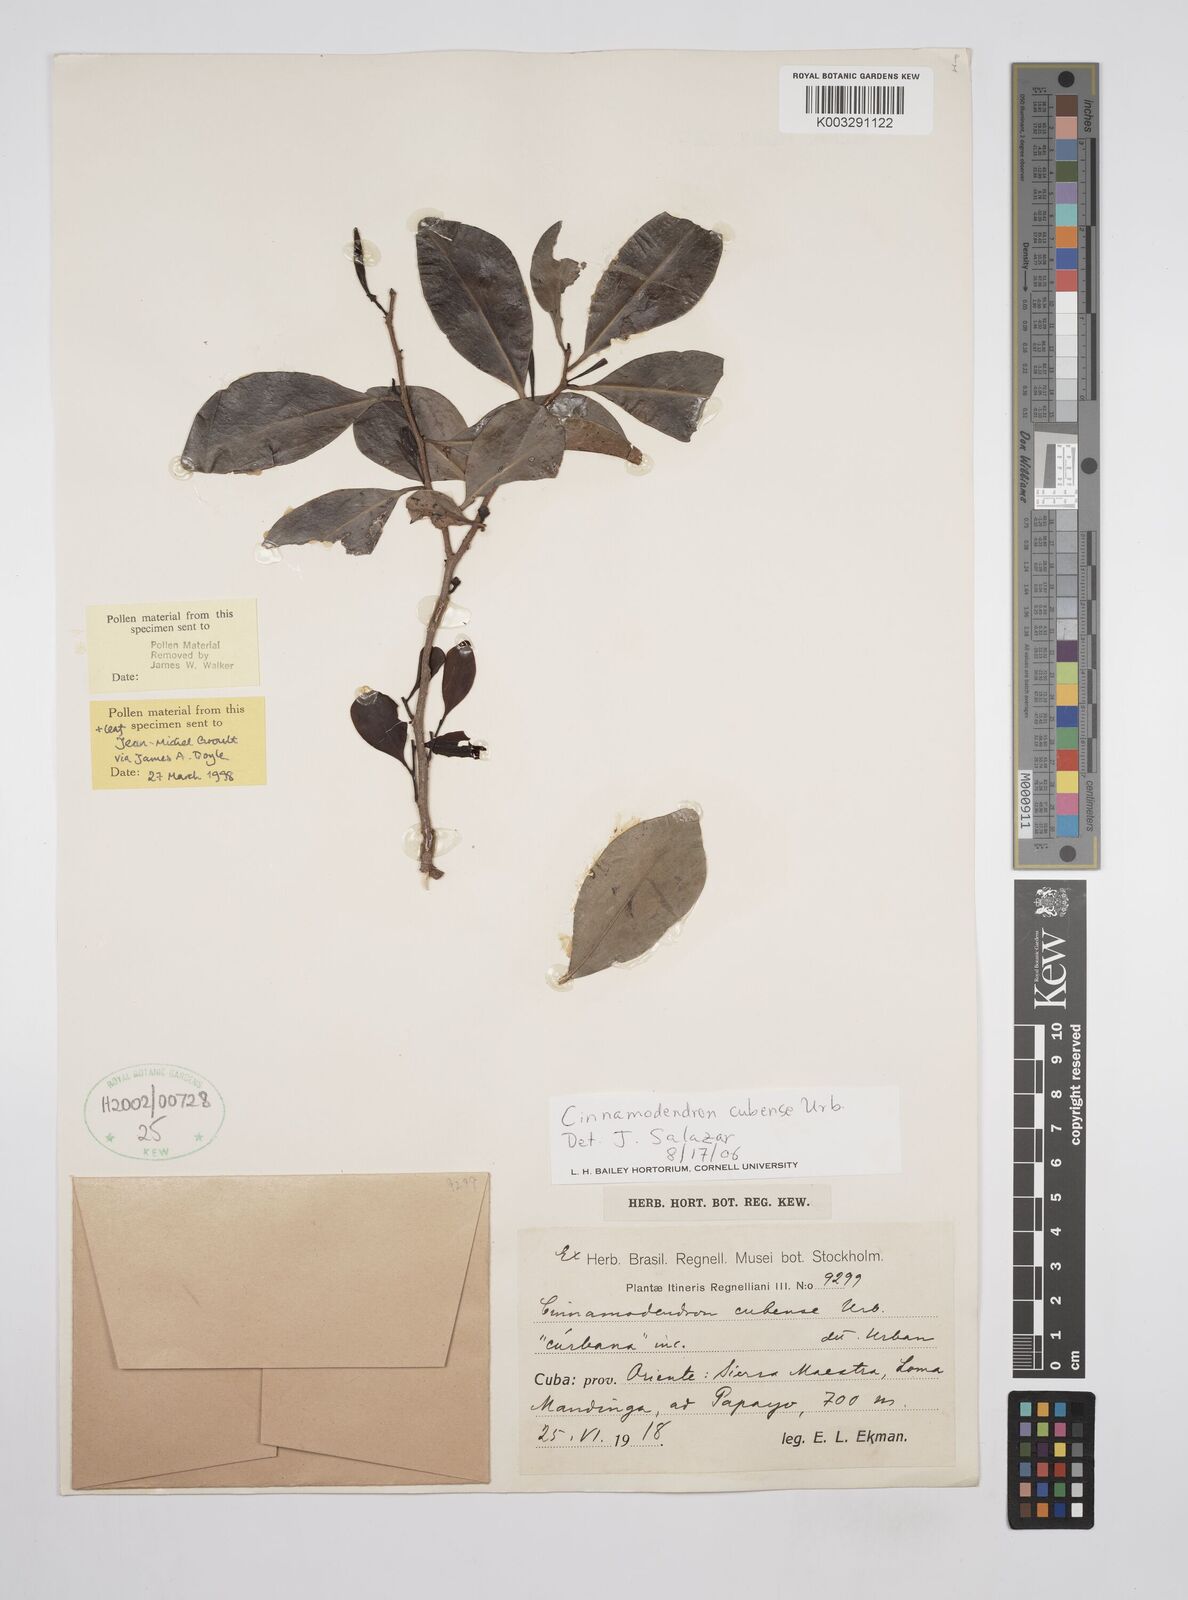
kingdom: Plantae
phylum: Tracheophyta
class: Magnoliopsida
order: Canellales
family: Canellaceae
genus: Cinnamodendron
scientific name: Cinnamodendron cubense
